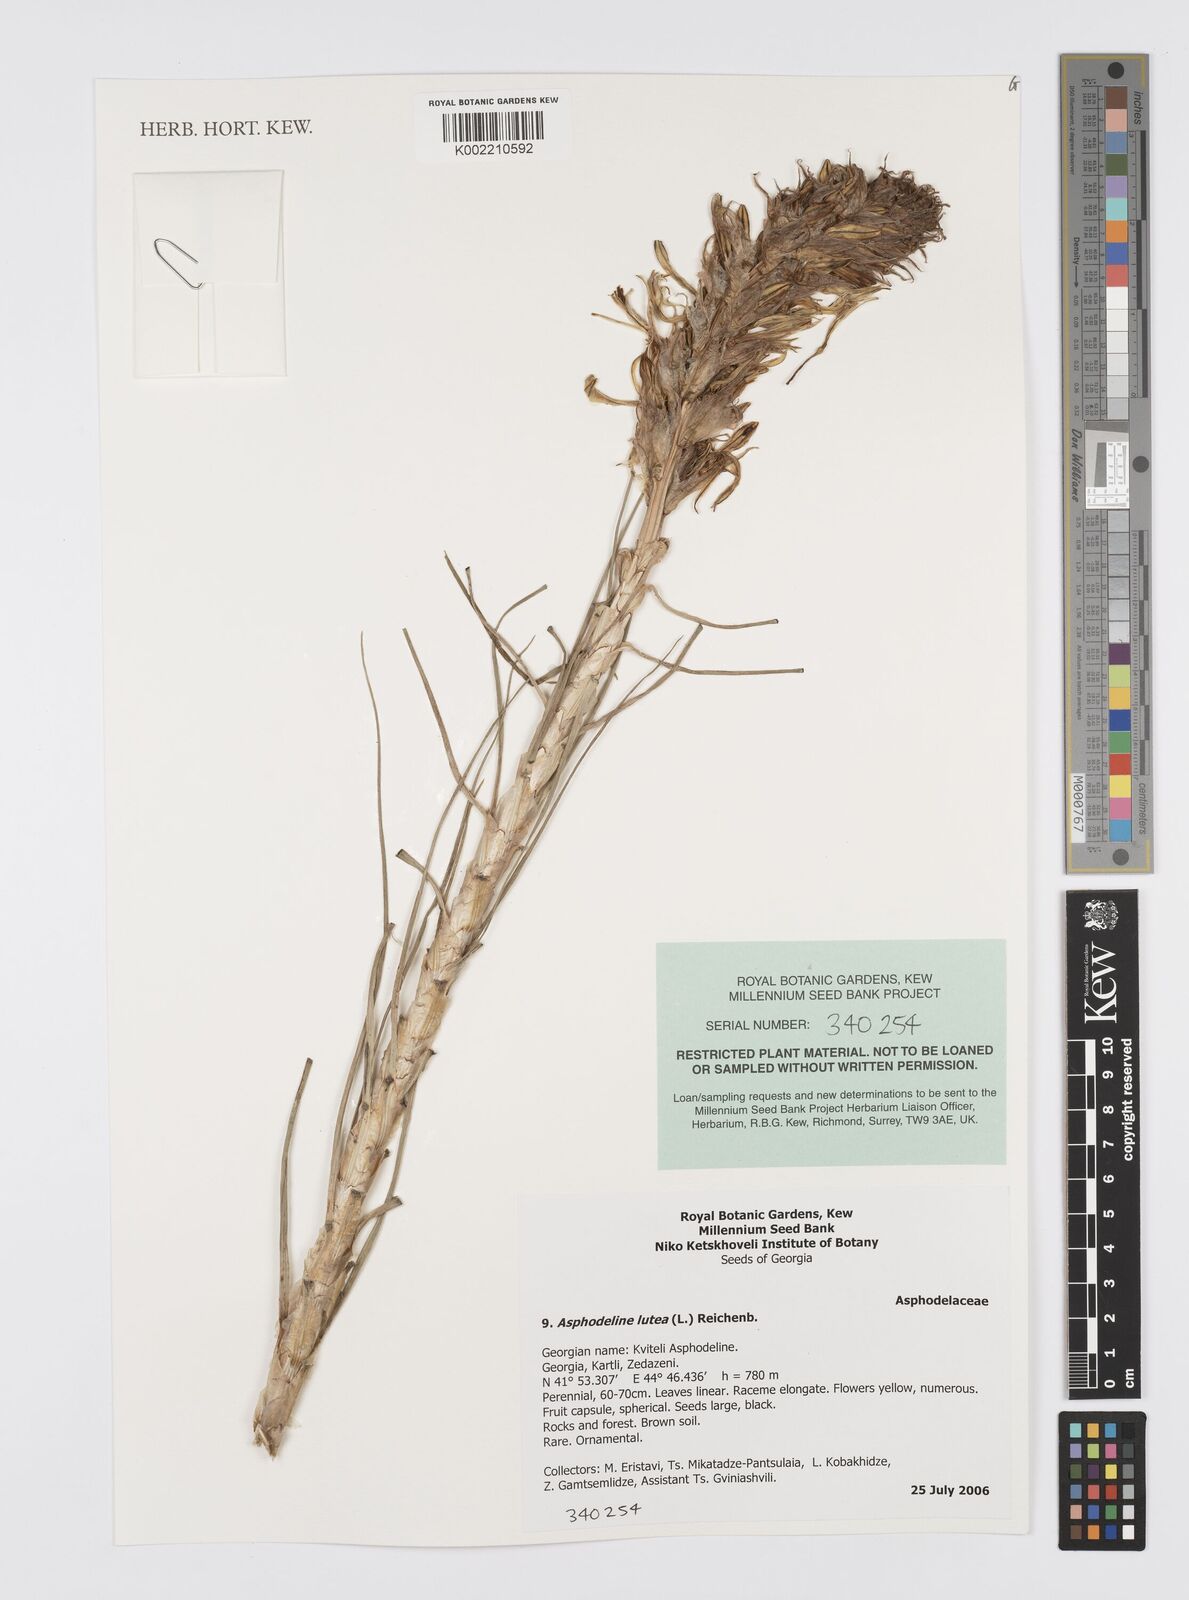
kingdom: Plantae
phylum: Tracheophyta
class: Liliopsida
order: Asparagales
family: Asphodelaceae
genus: Asphodeline
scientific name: Asphodeline lutea
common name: Yellow asphodel
